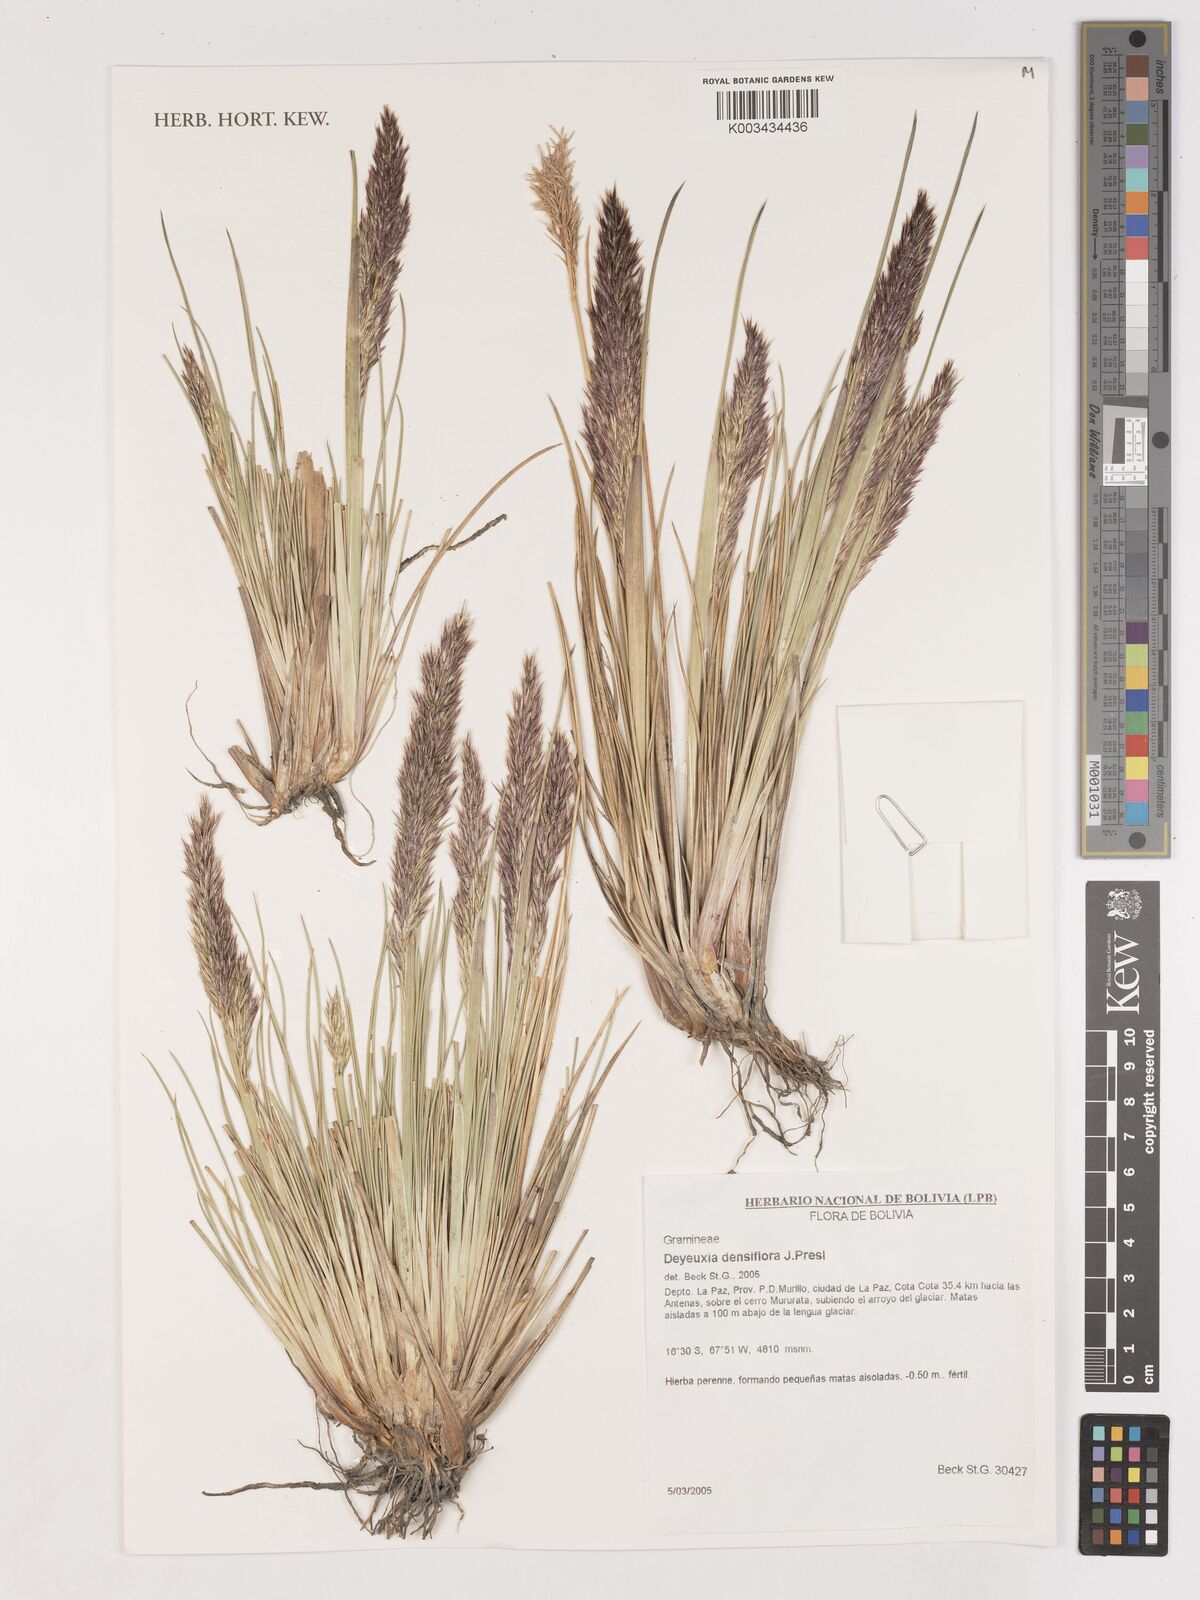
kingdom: Plantae
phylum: Tracheophyta
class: Liliopsida
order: Poales
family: Poaceae
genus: Cinnagrostis
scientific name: Cinnagrostis densiflora
